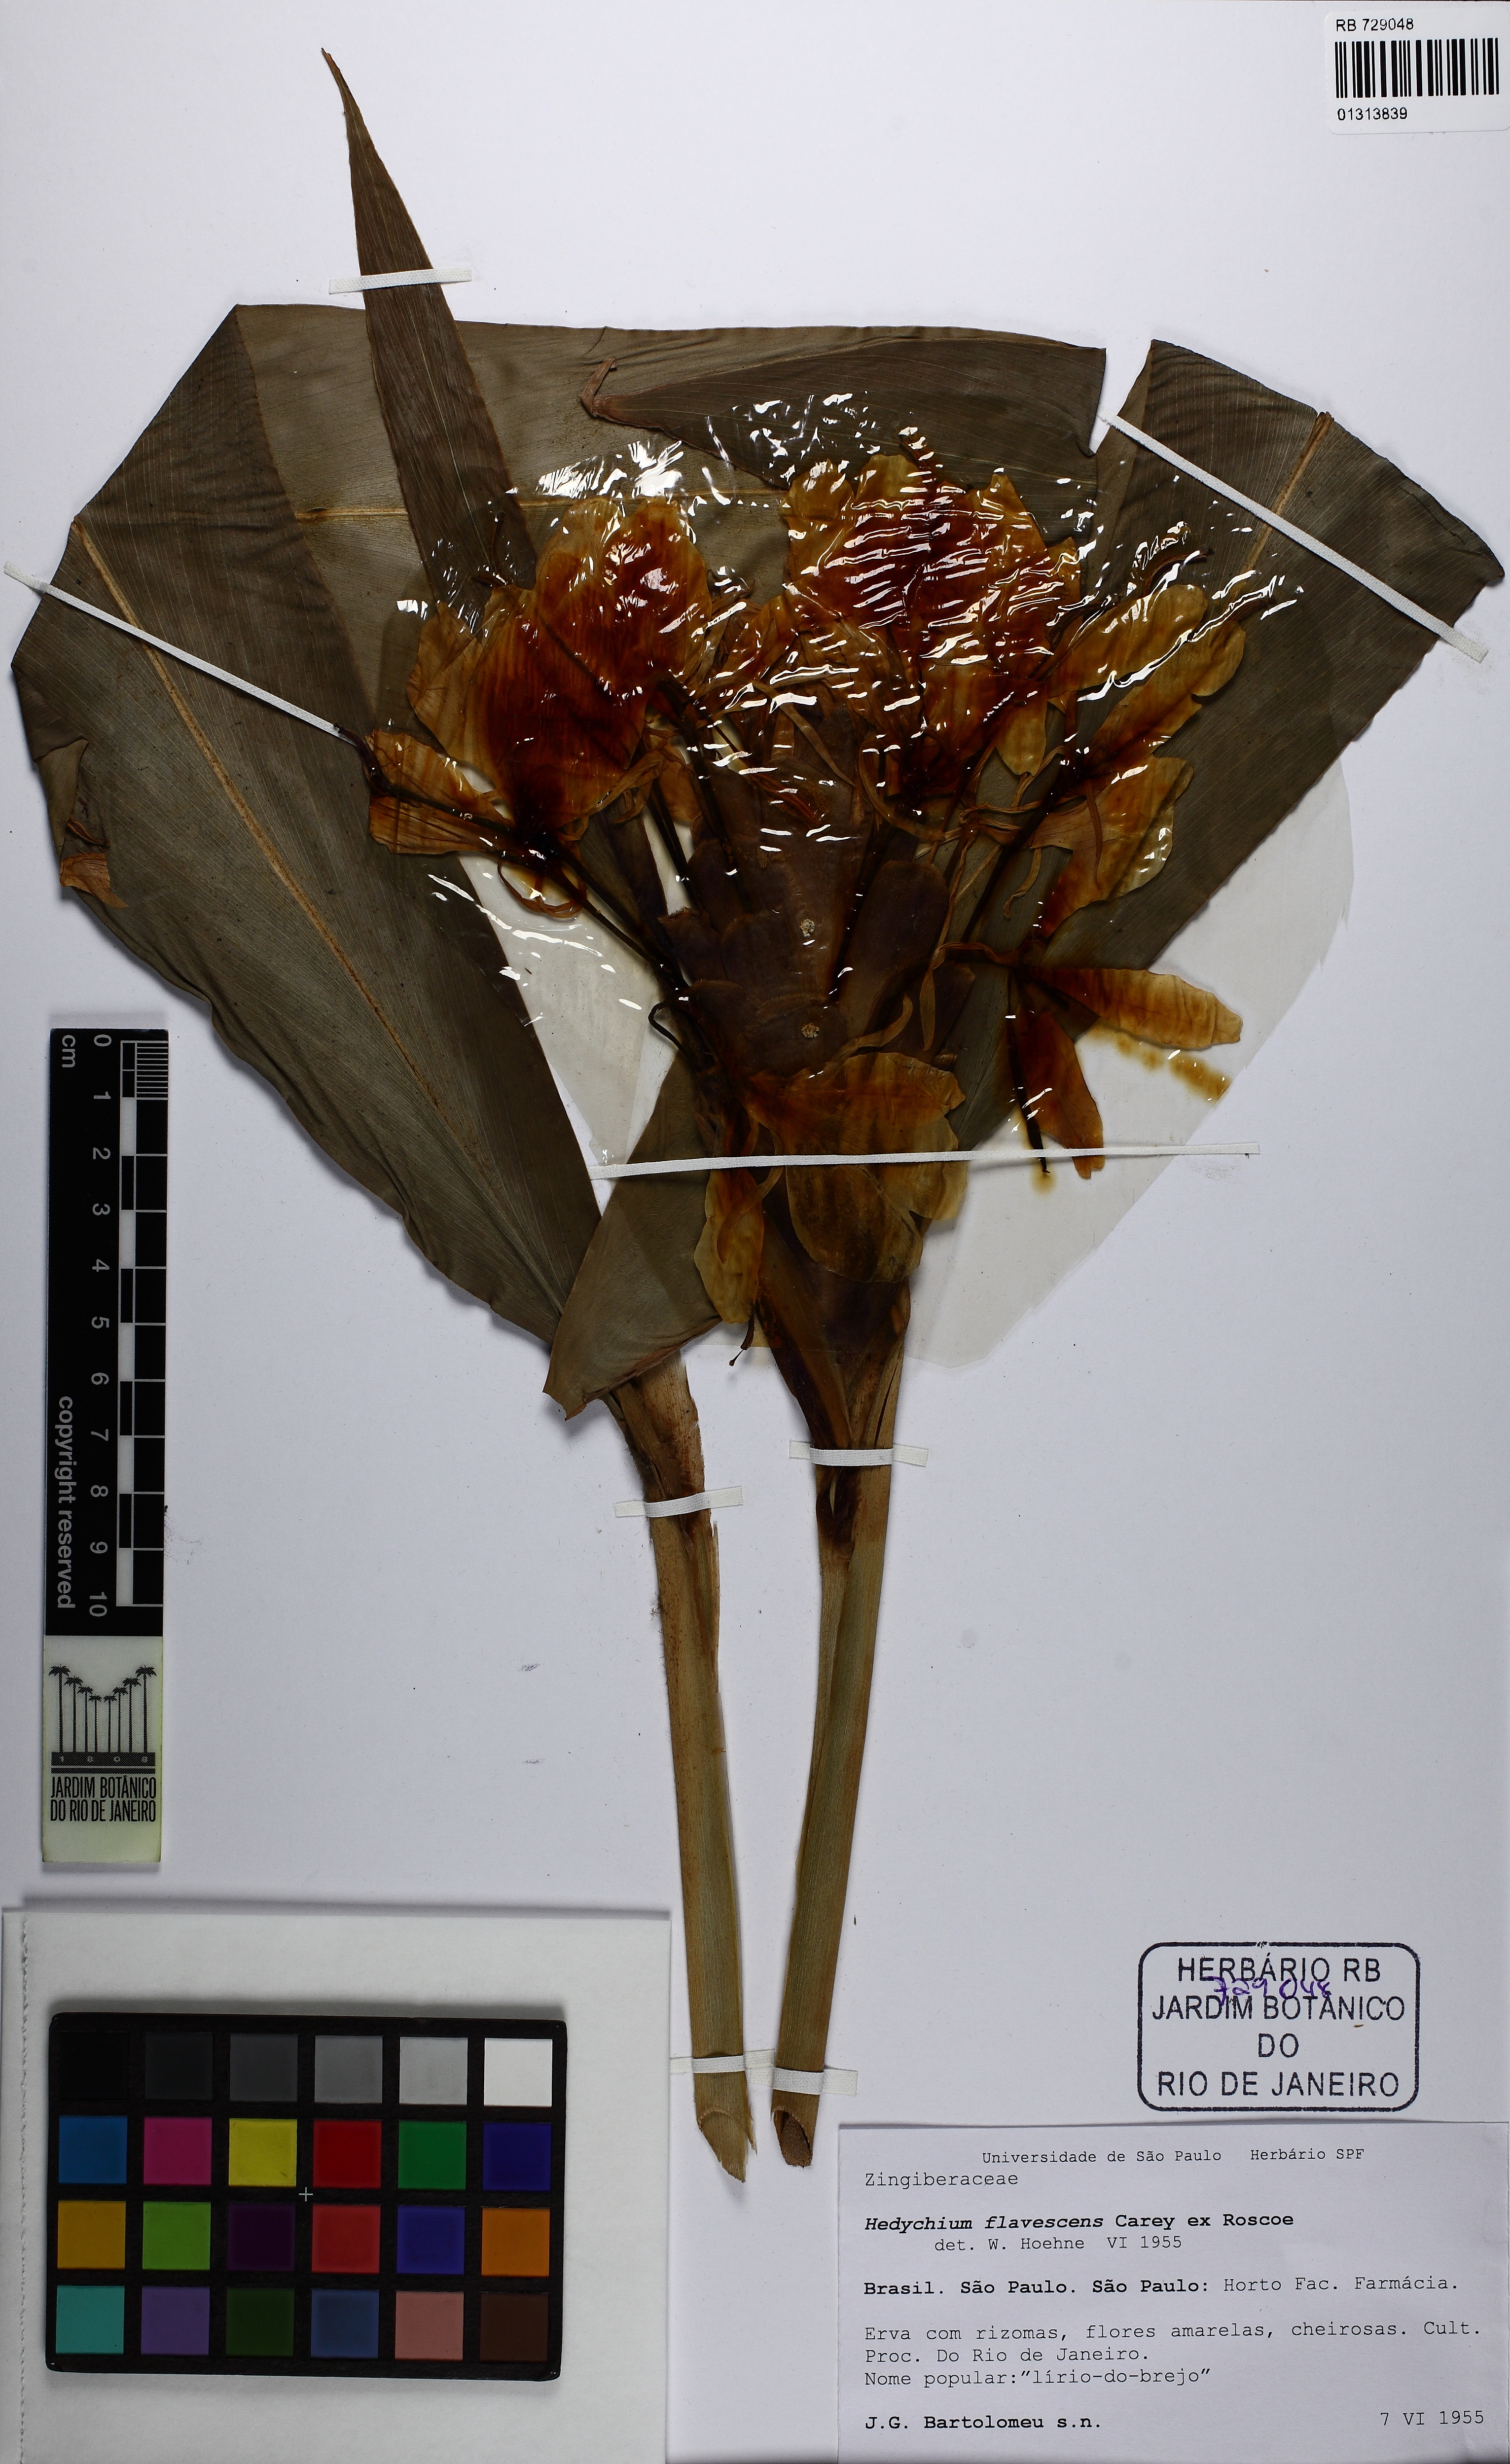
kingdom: Plantae
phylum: Tracheophyta
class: Liliopsida
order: Zingiberales
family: Zingiberaceae
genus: Hedychium
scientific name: Hedychium flavescens
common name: Yellow ginger
